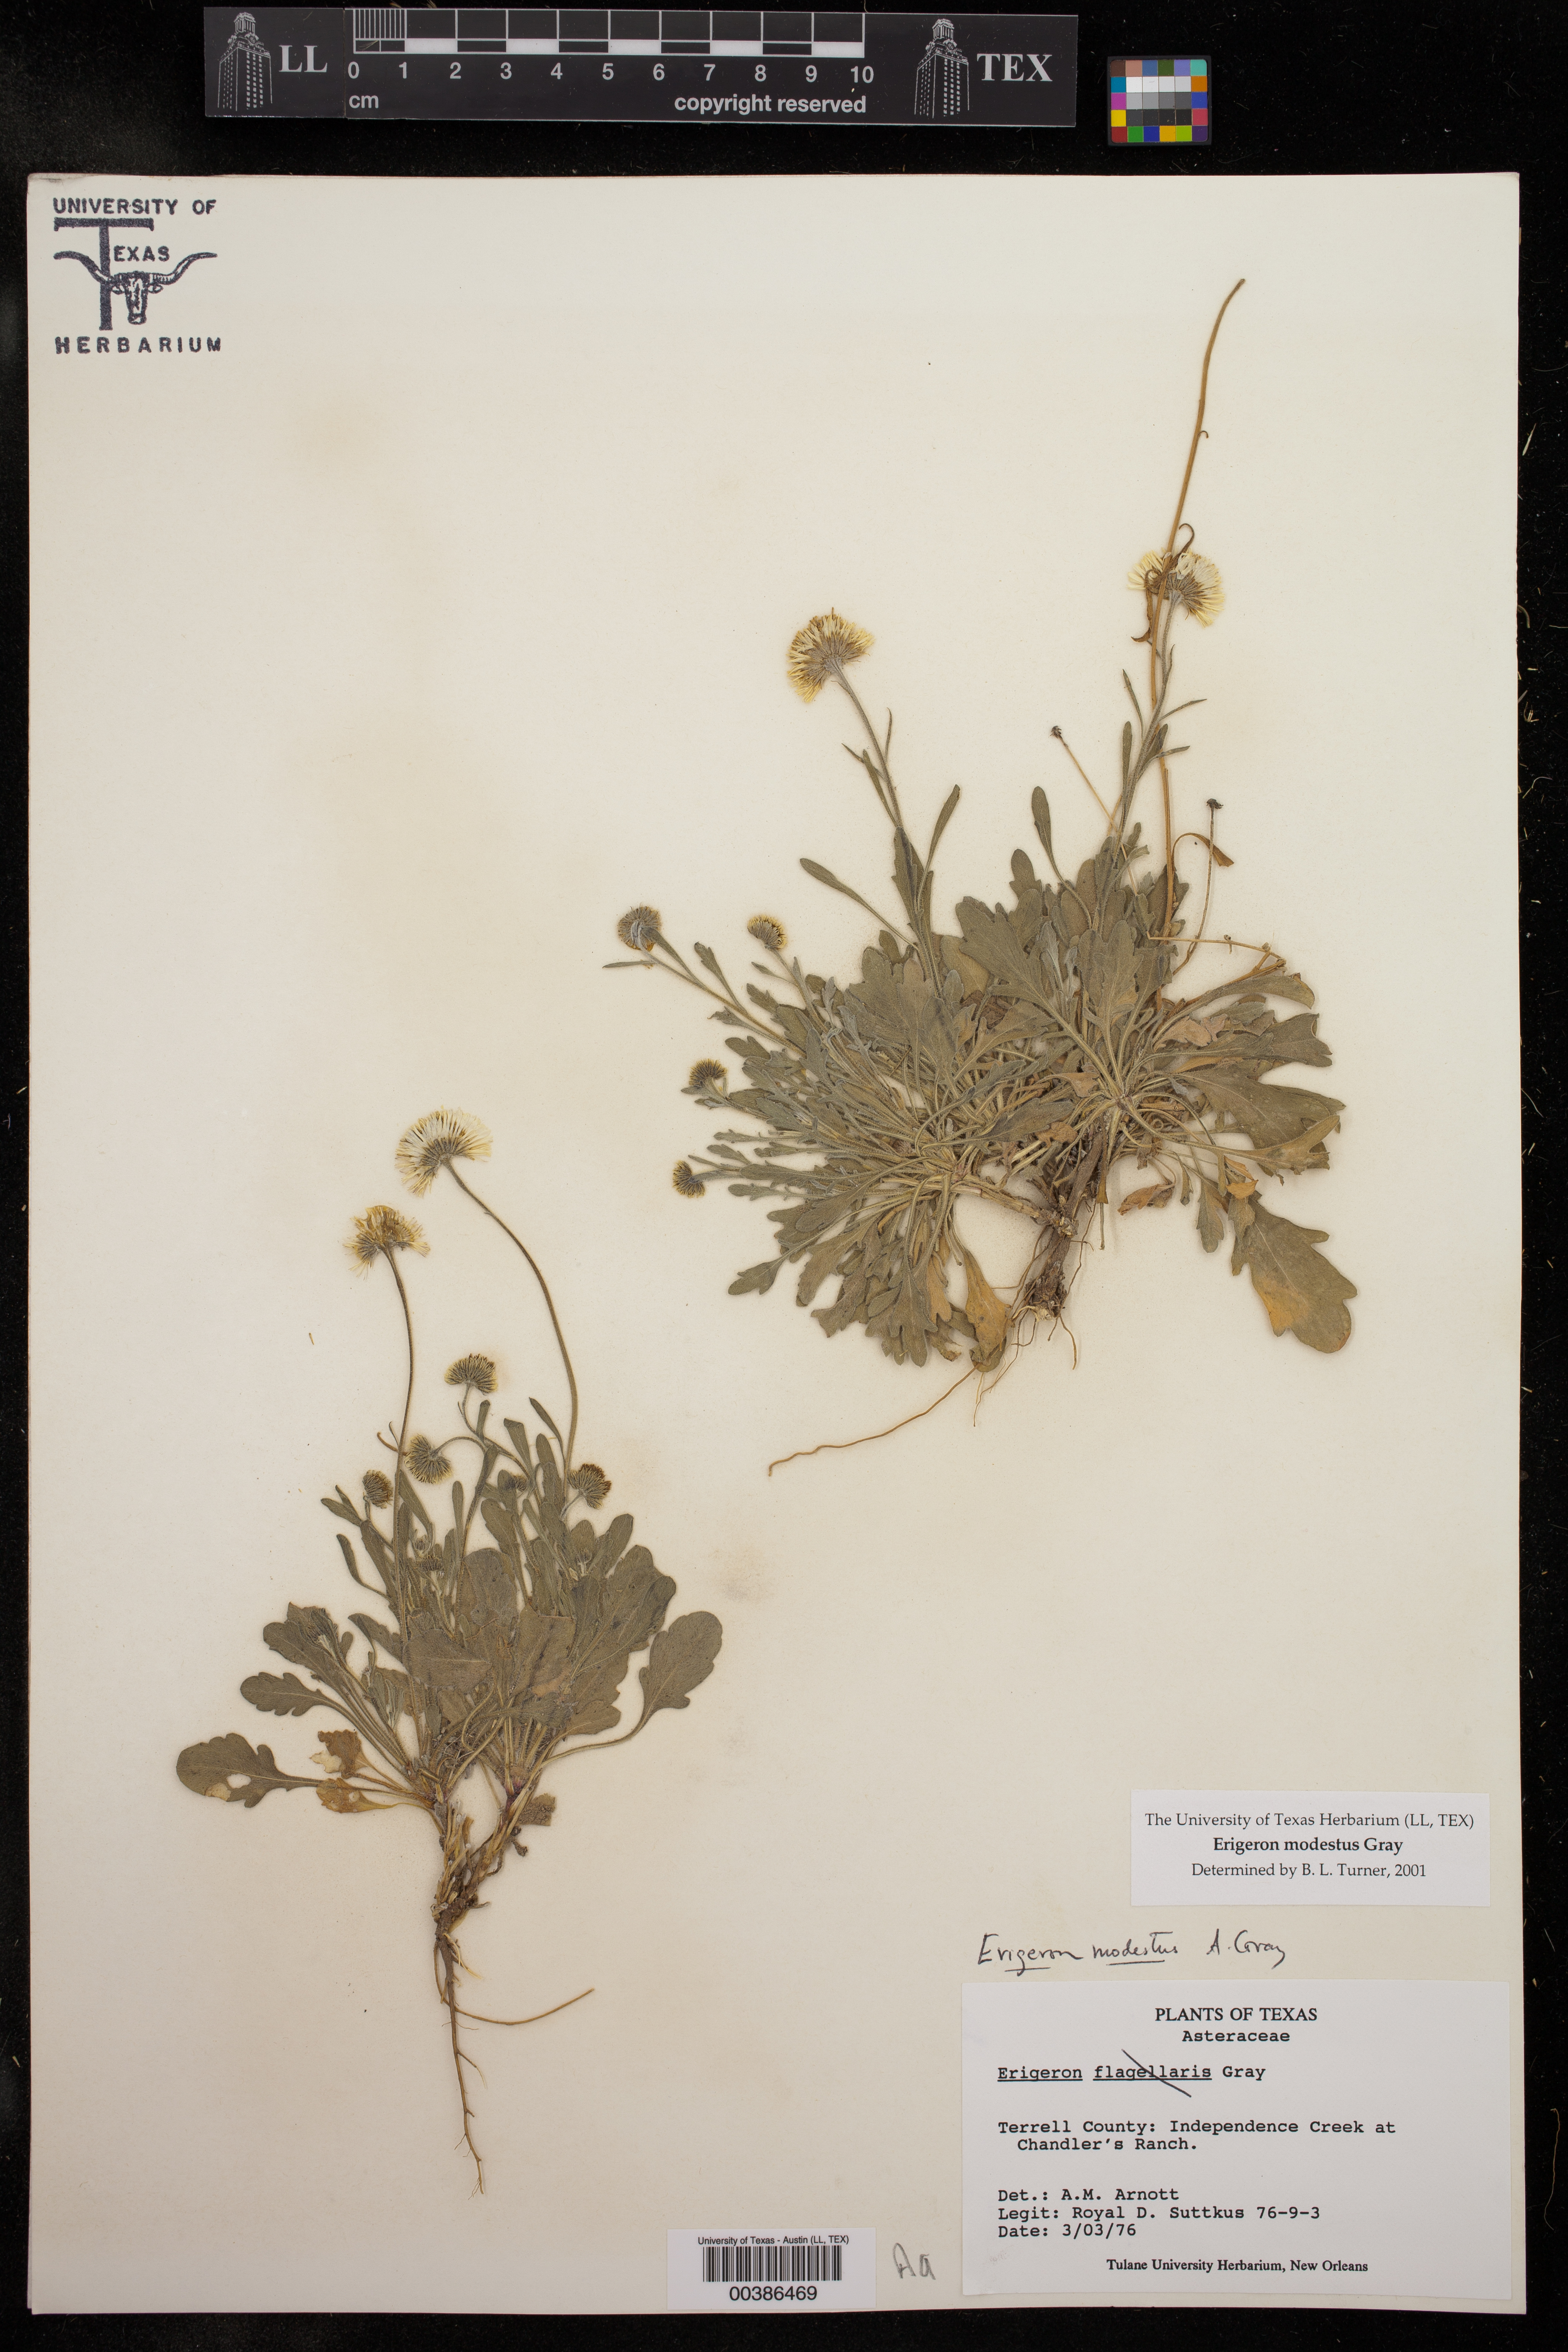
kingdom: Plantae
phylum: Tracheophyta
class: Magnoliopsida
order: Asterales
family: Asteraceae
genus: Erigeron
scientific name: Erigeron modestus
